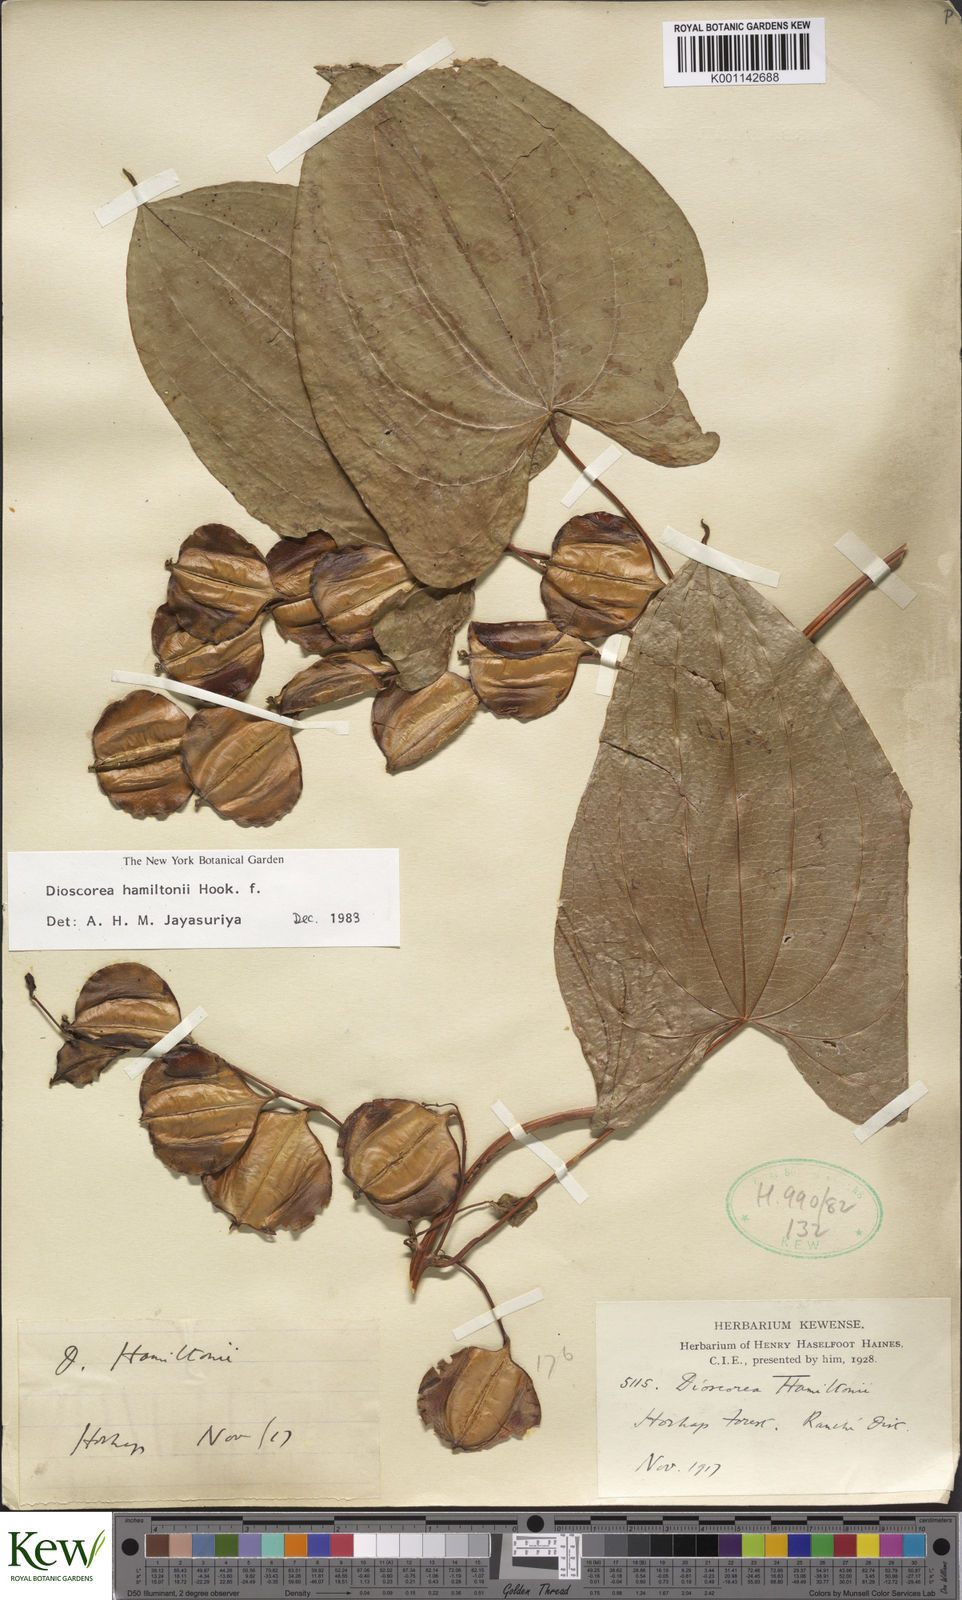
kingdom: Plantae
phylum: Tracheophyta
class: Liliopsida
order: Dioscoreales
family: Dioscoreaceae
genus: Dioscorea
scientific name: Dioscorea hamiltonii
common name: Mountain yam
